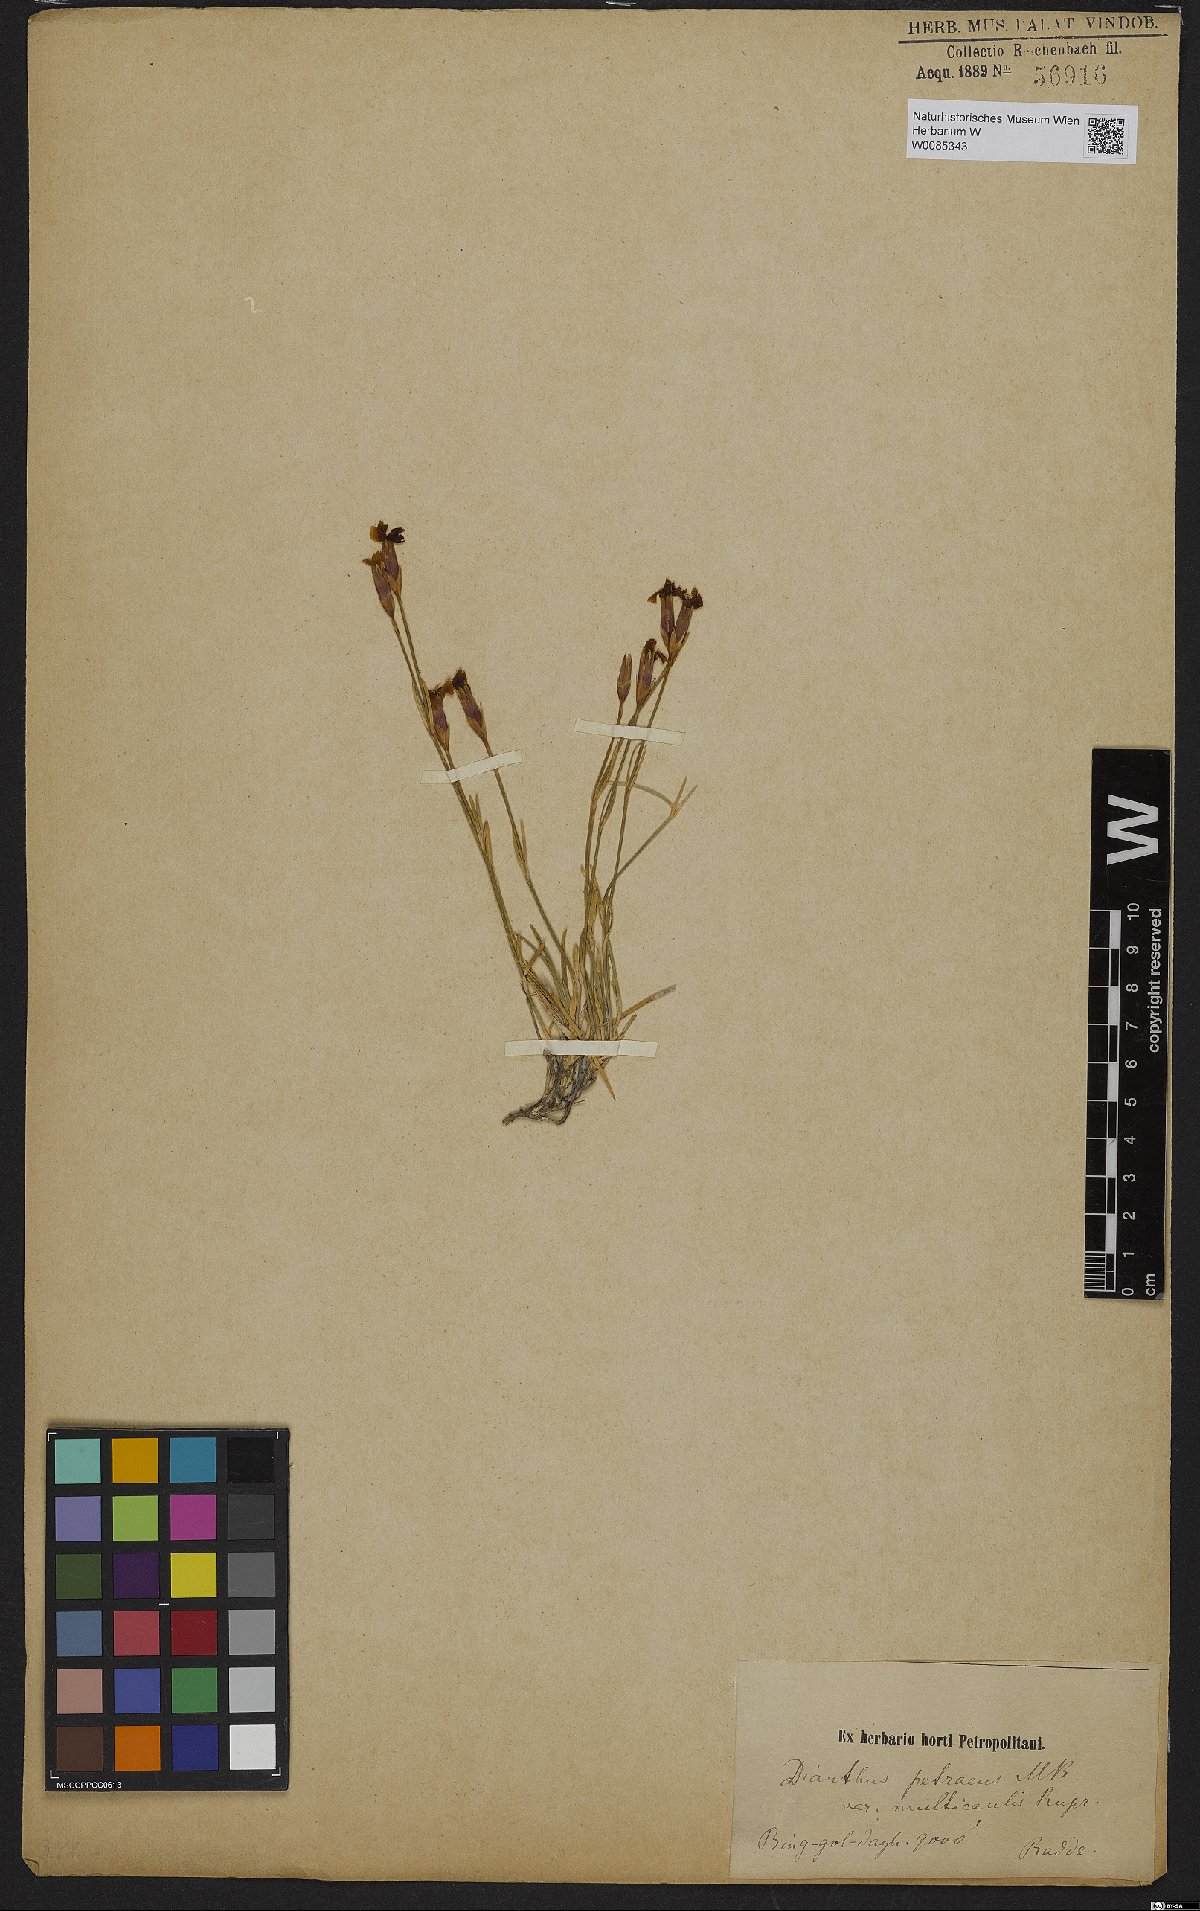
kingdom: Plantae
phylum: Tracheophyta
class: Magnoliopsida
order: Caryophyllales
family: Caryophyllaceae
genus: Dianthus
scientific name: Dianthus petraeus
